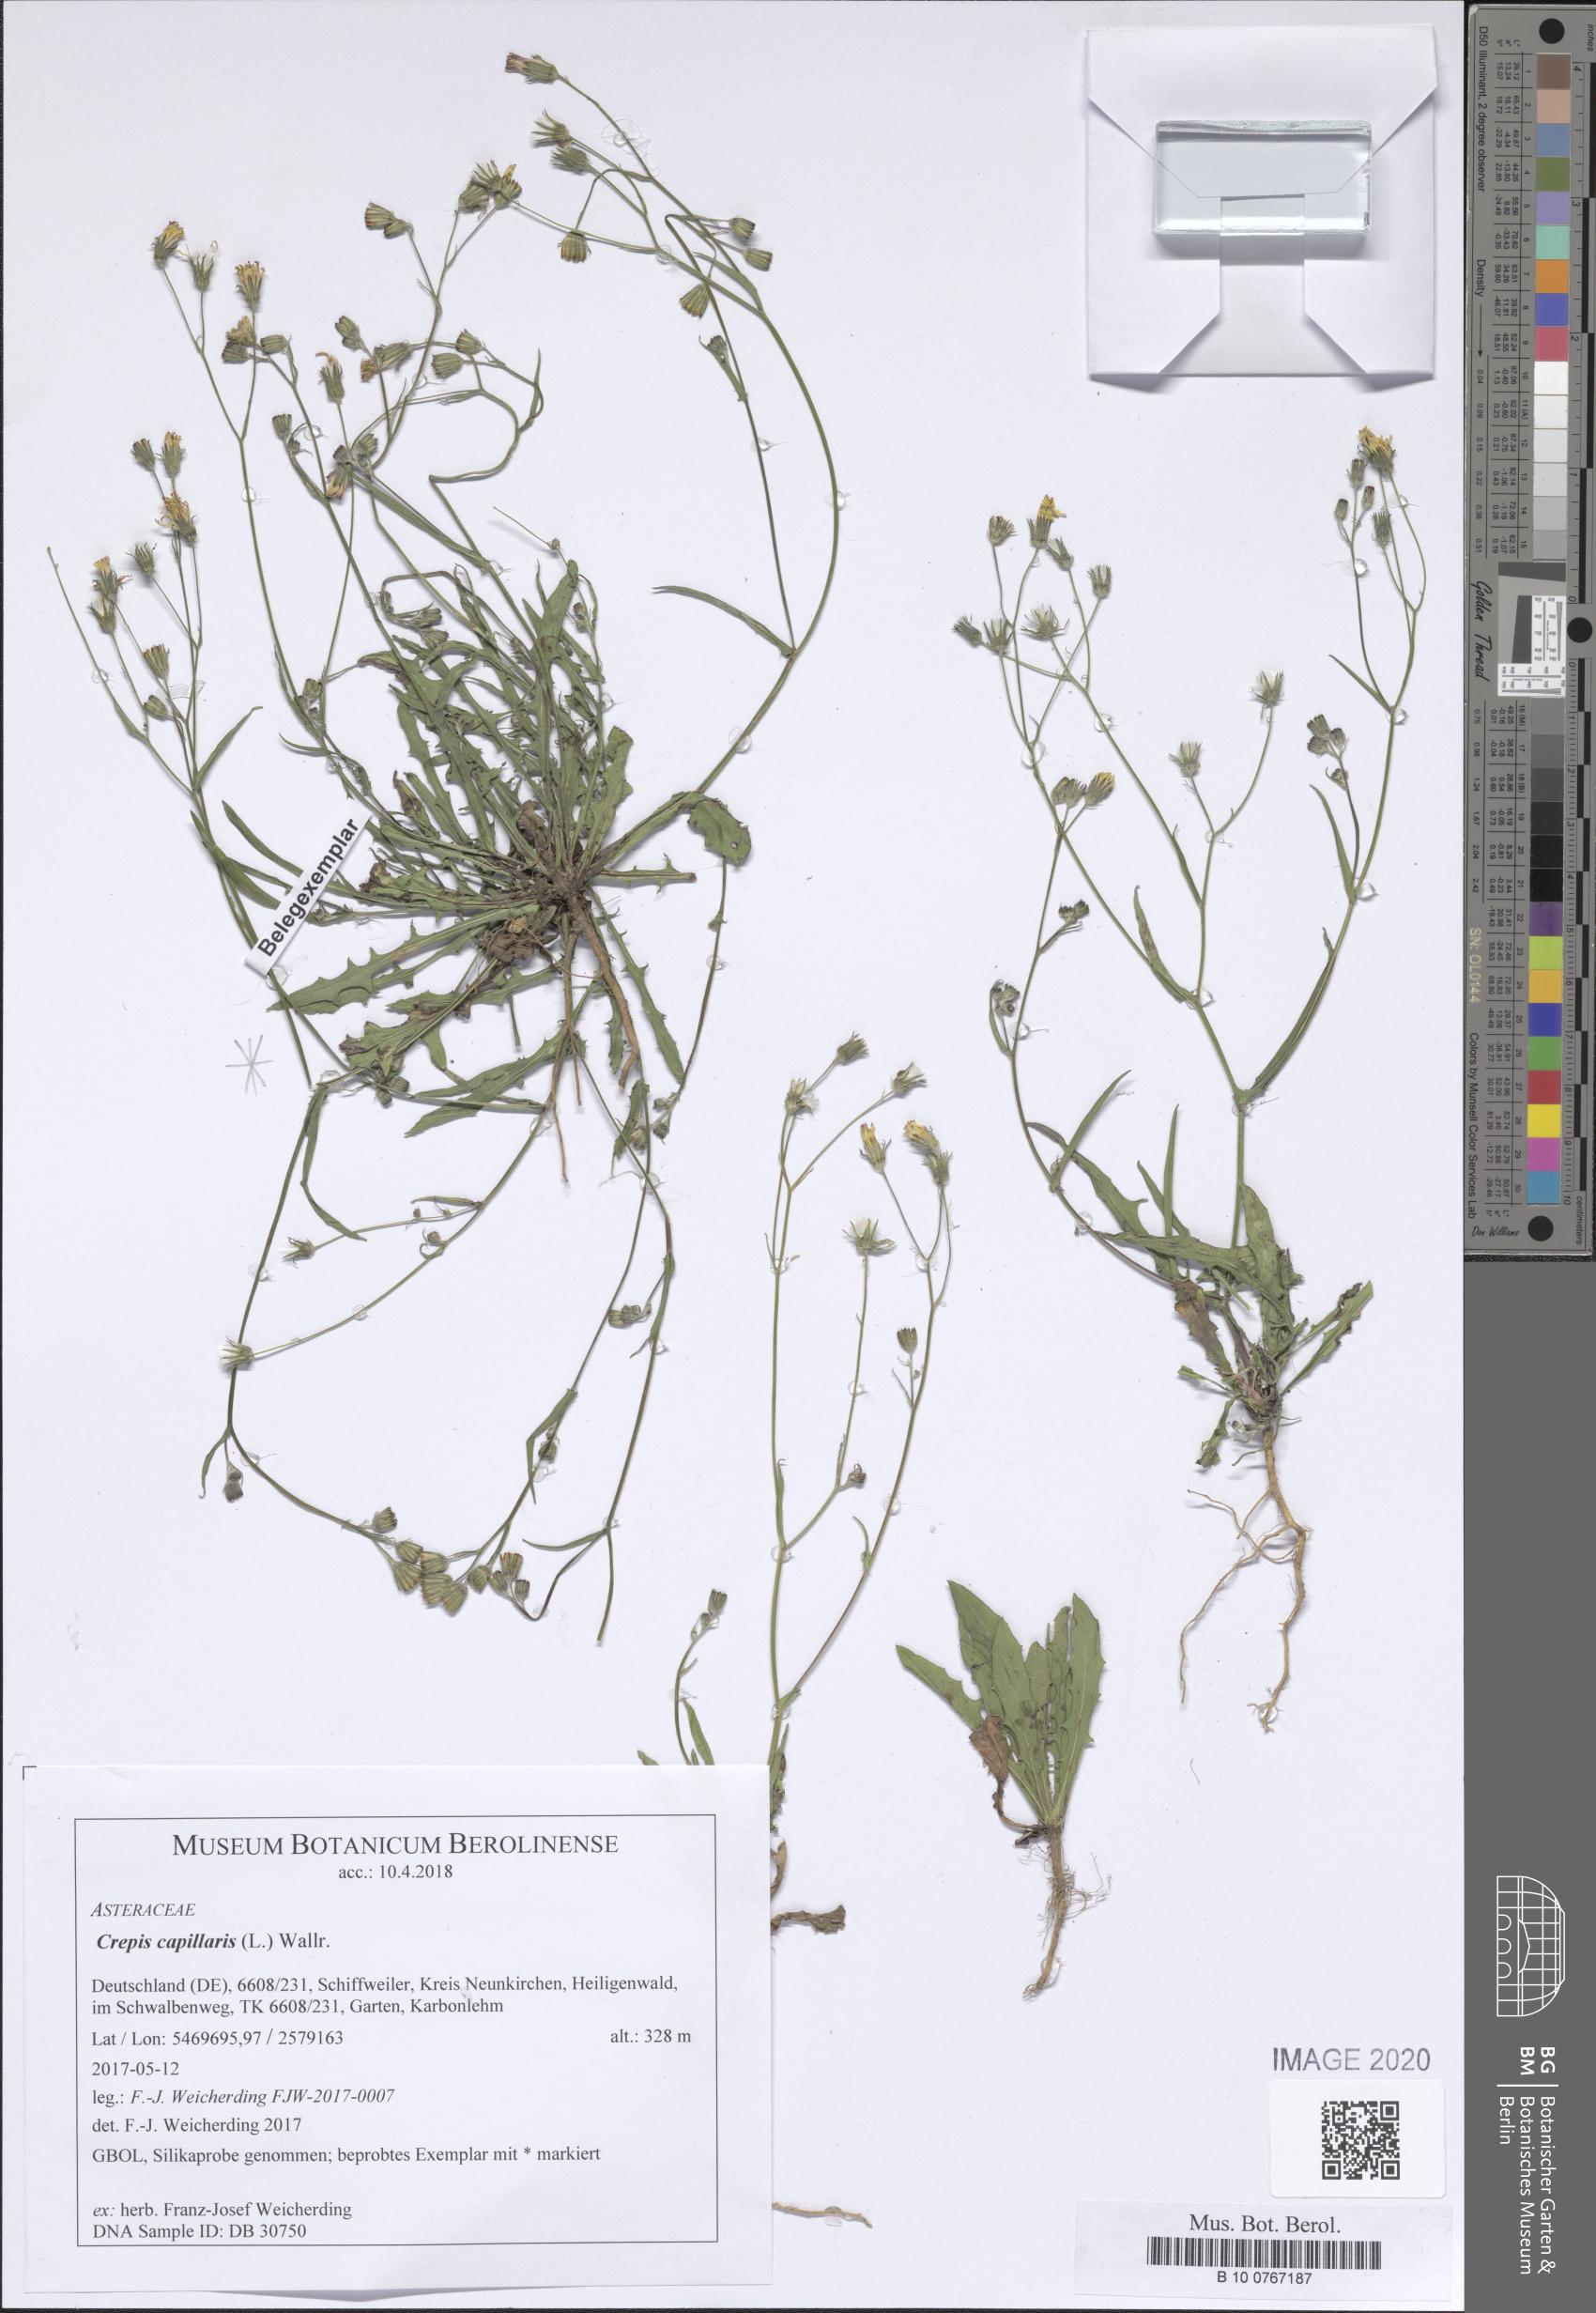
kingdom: Plantae
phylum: Tracheophyta
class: Magnoliopsida
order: Asterales
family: Asteraceae
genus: Crepis
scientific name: Crepis capillaris
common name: Smooth hawksbeard
